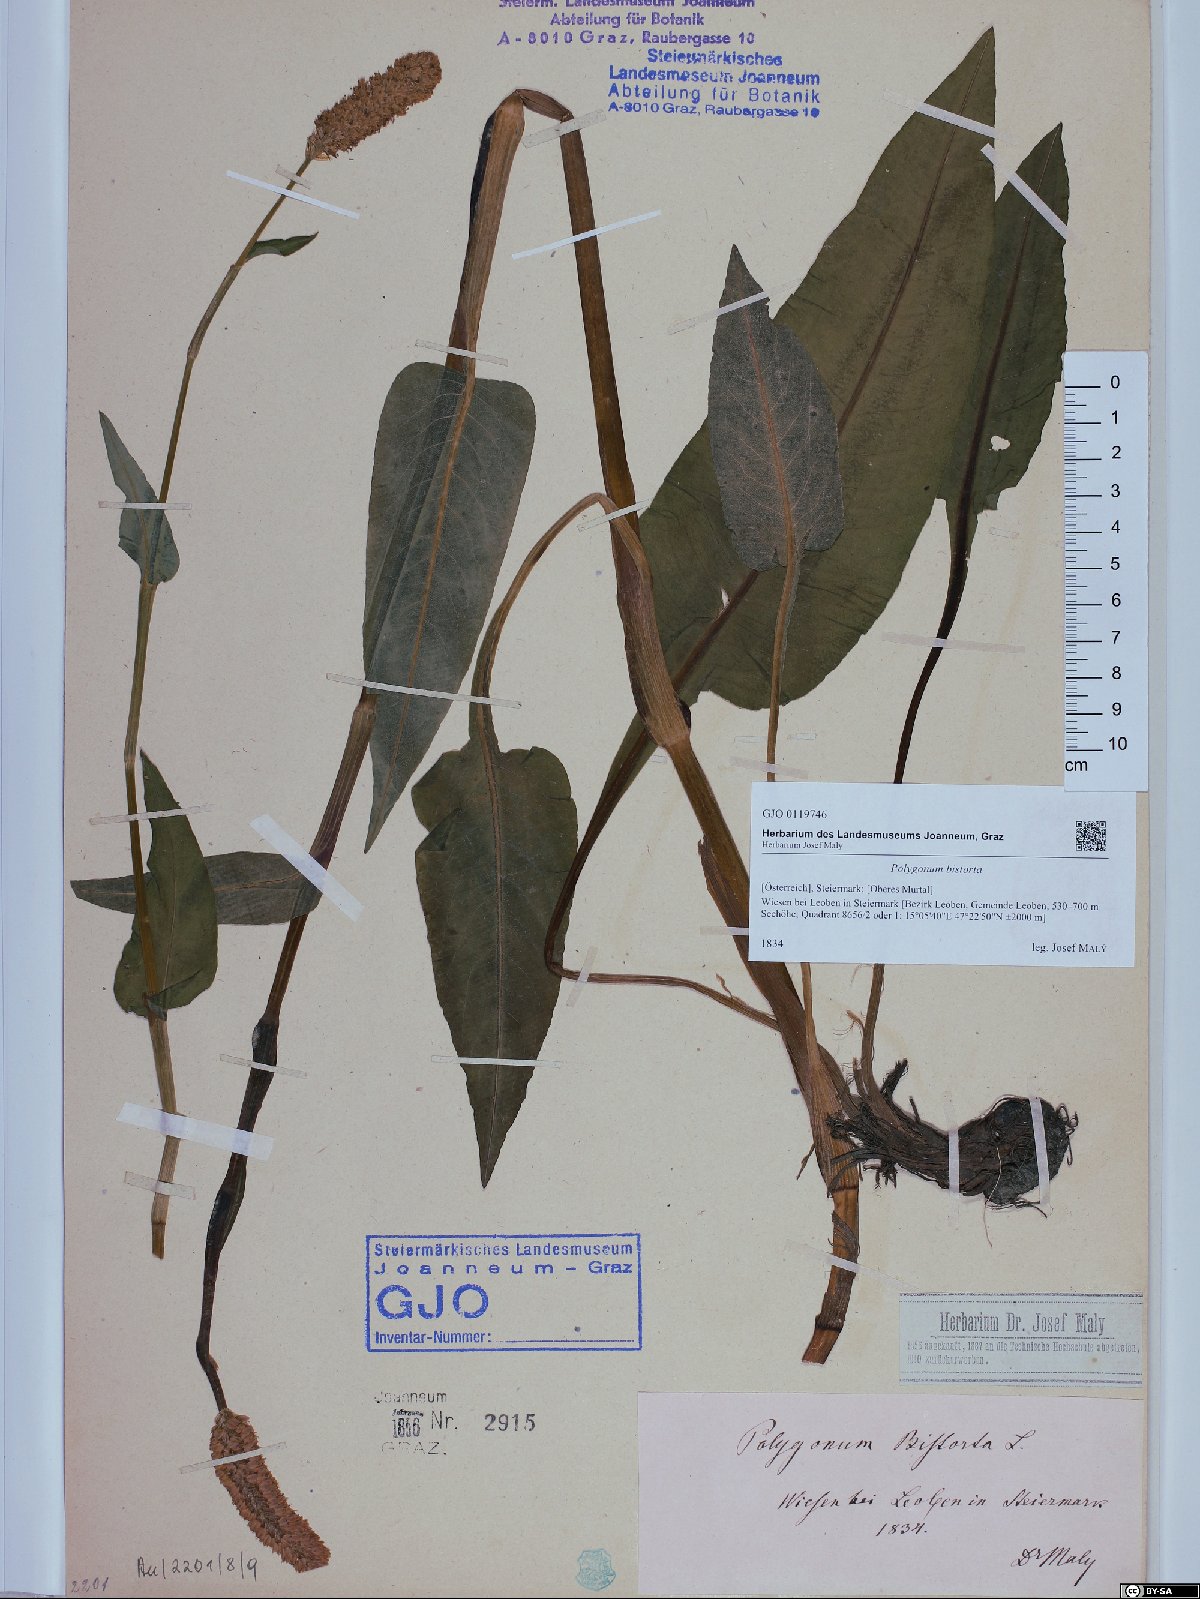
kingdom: Plantae
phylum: Tracheophyta
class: Magnoliopsida
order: Caryophyllales
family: Polygonaceae
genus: Bistorta
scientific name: Bistorta officinalis
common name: Common bistort
